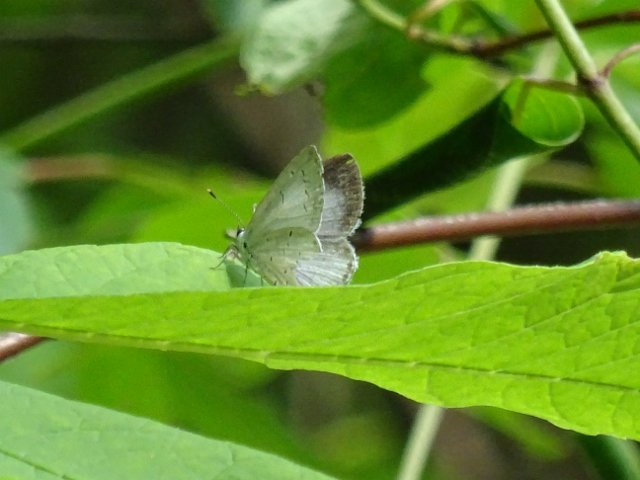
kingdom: Animalia
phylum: Arthropoda
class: Insecta
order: Lepidoptera
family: Lycaenidae
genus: Celastrina
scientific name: Celastrina
